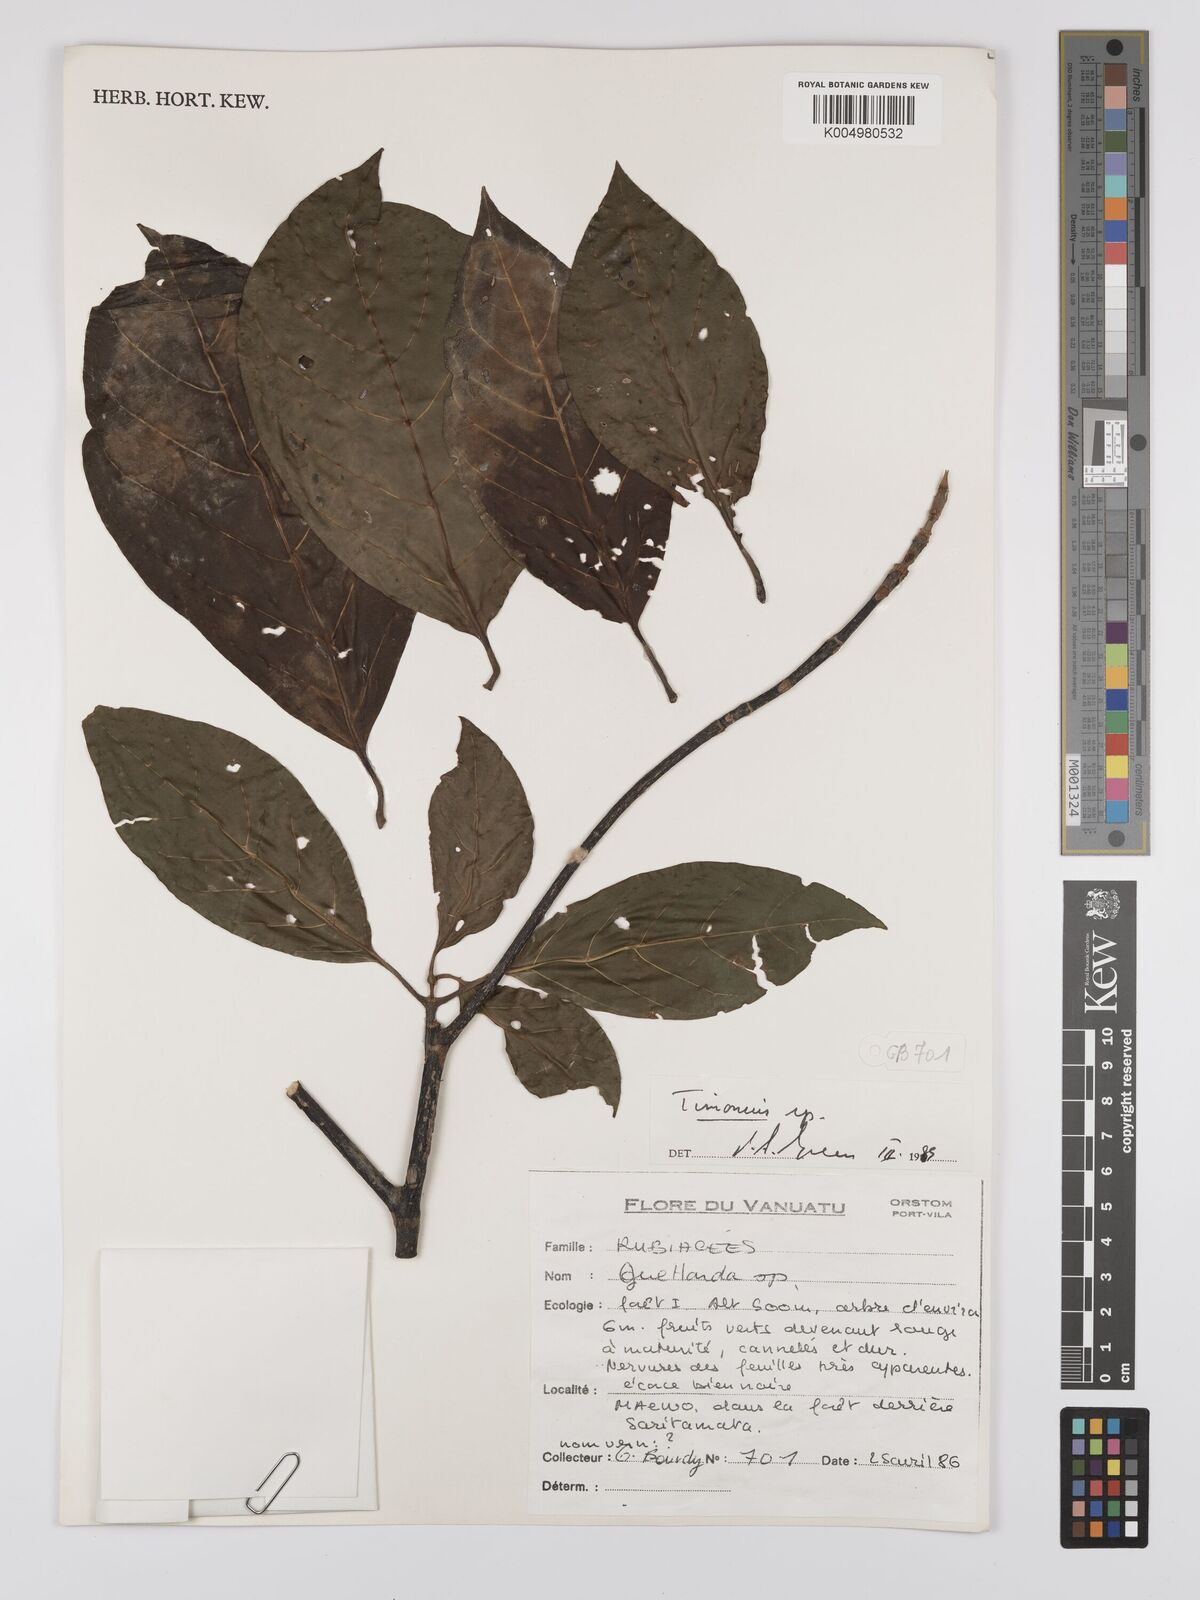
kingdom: Plantae
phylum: Tracheophyta
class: Magnoliopsida
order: Gentianales
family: Rubiaceae
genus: Timonius
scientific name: Timonius
